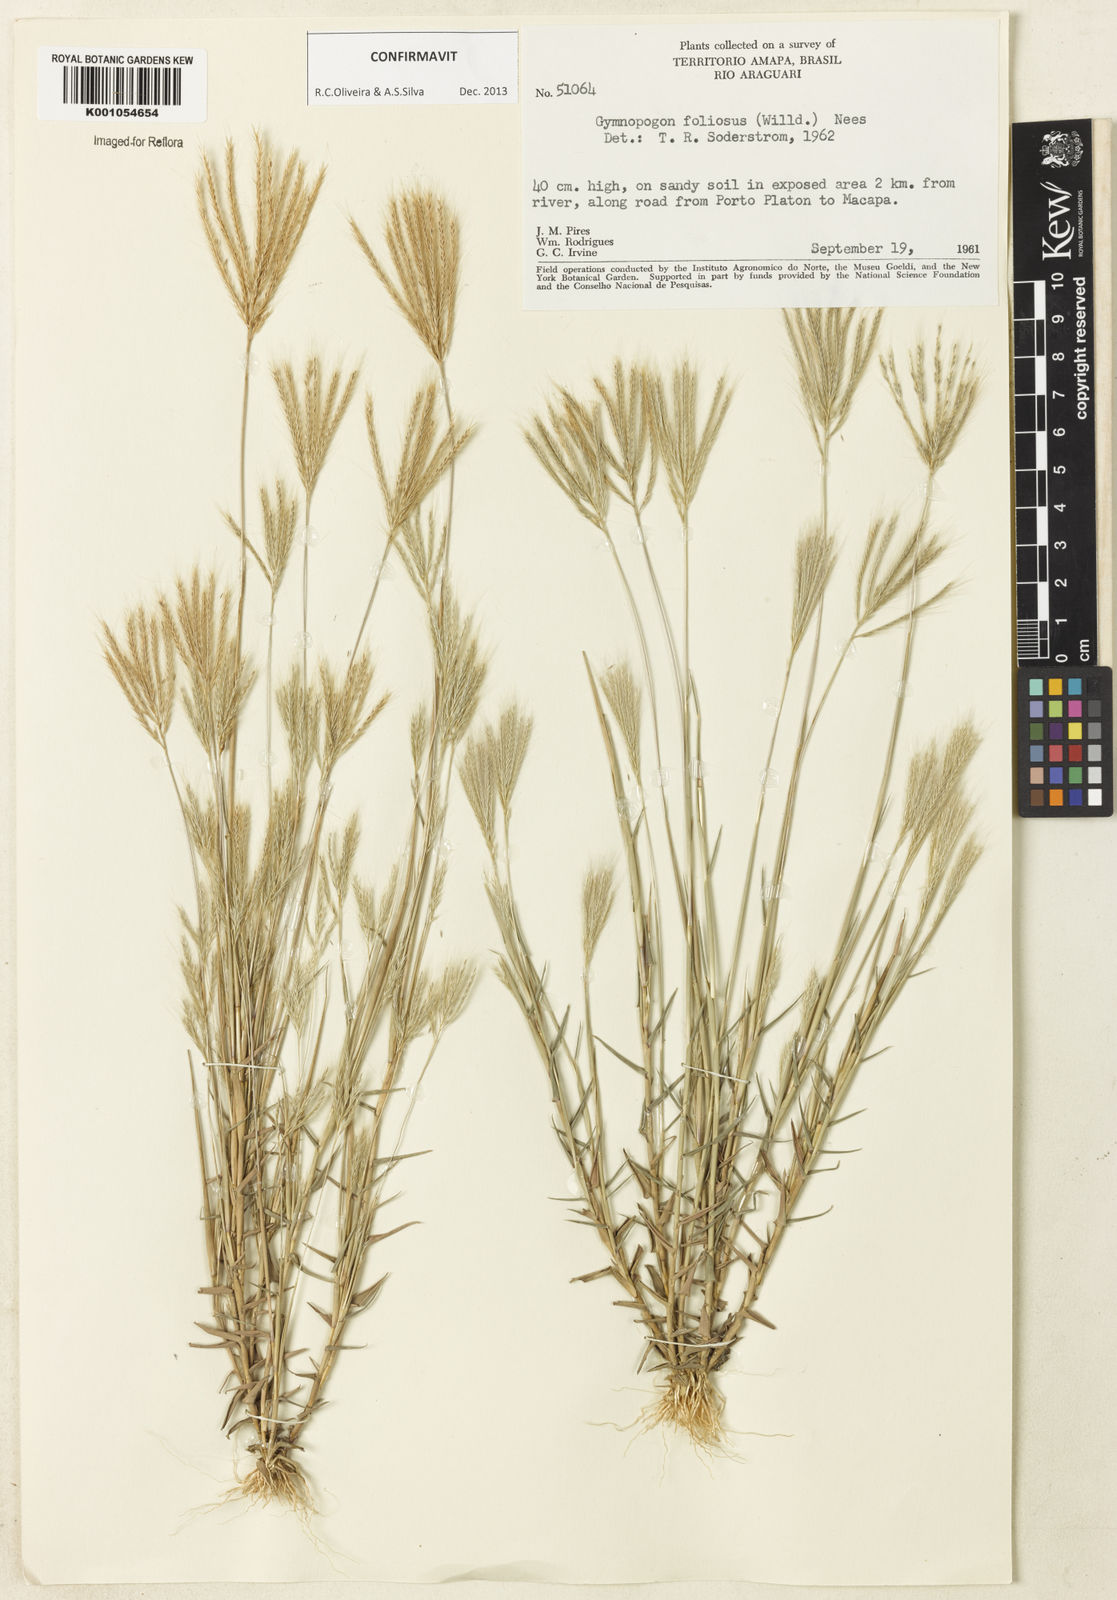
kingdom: Plantae
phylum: Tracheophyta
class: Liliopsida
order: Poales
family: Poaceae
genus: Gymnopogon
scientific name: Gymnopogon foliosus
